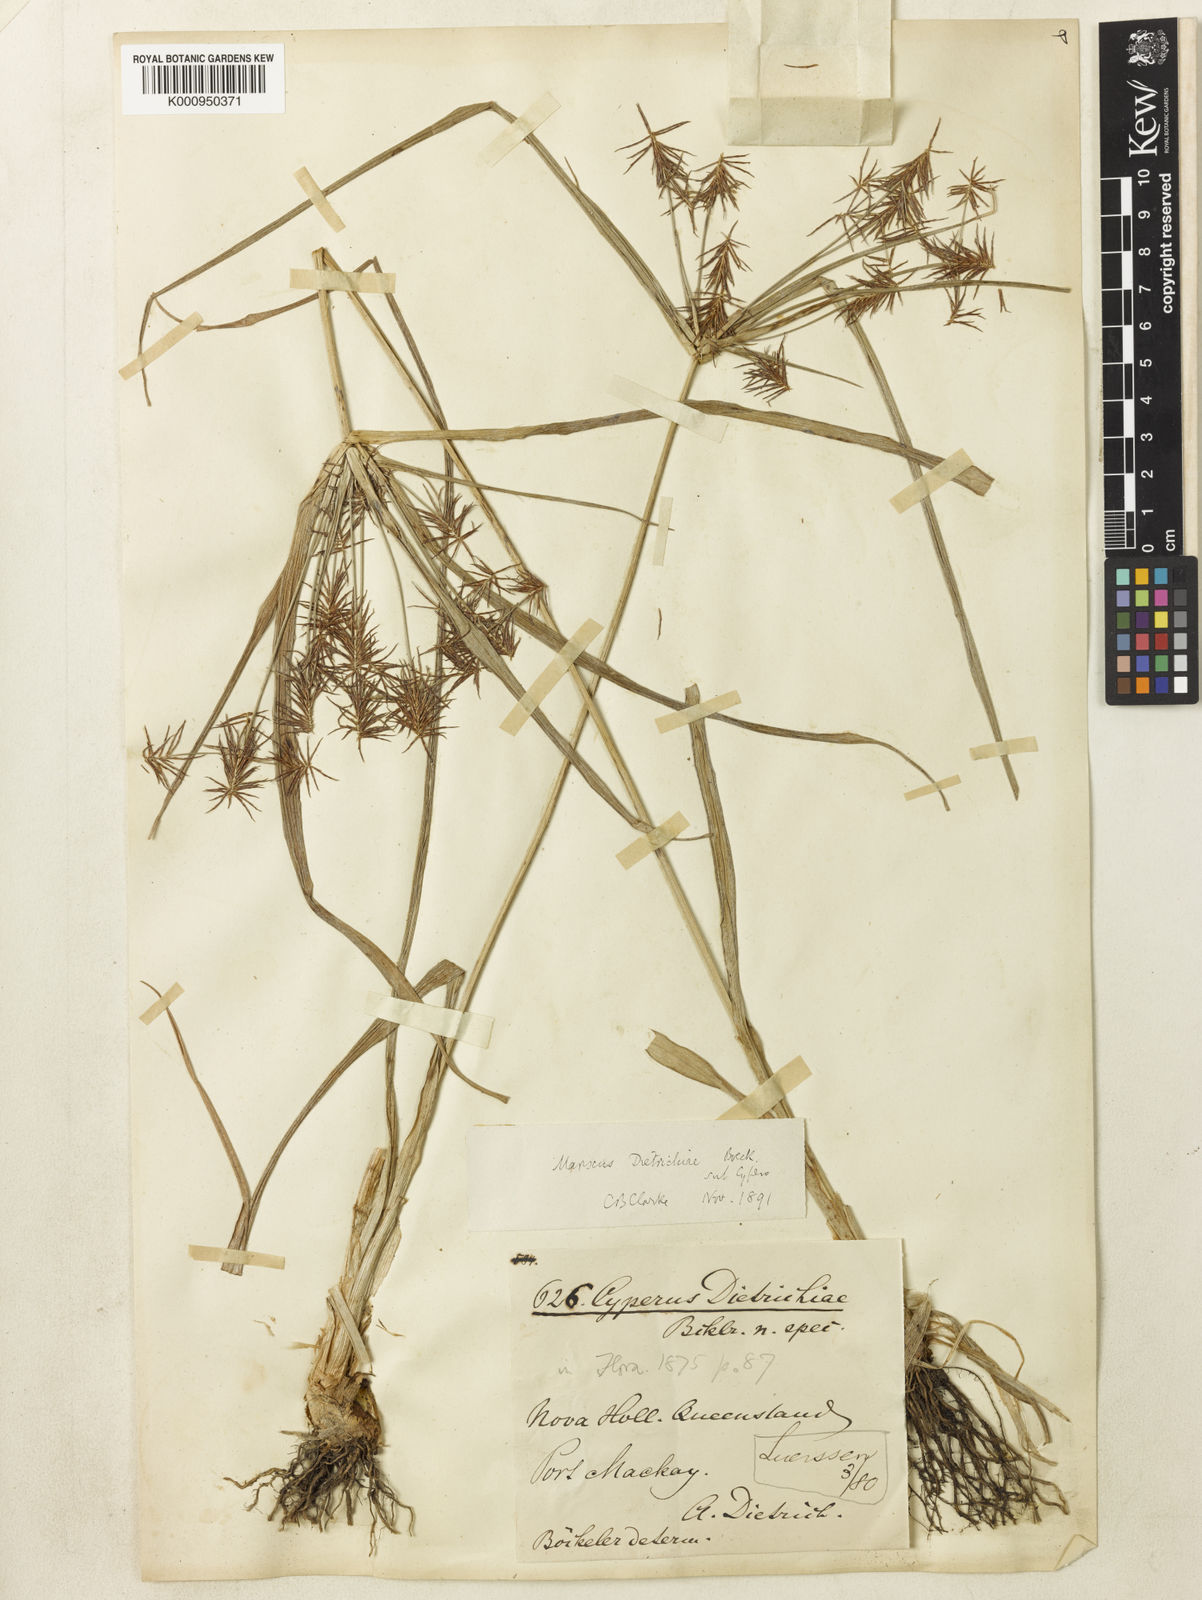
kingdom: Plantae
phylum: Tracheophyta
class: Liliopsida
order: Poales
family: Cyperaceae
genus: Cyperus
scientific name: Cyperus dietrichiae
